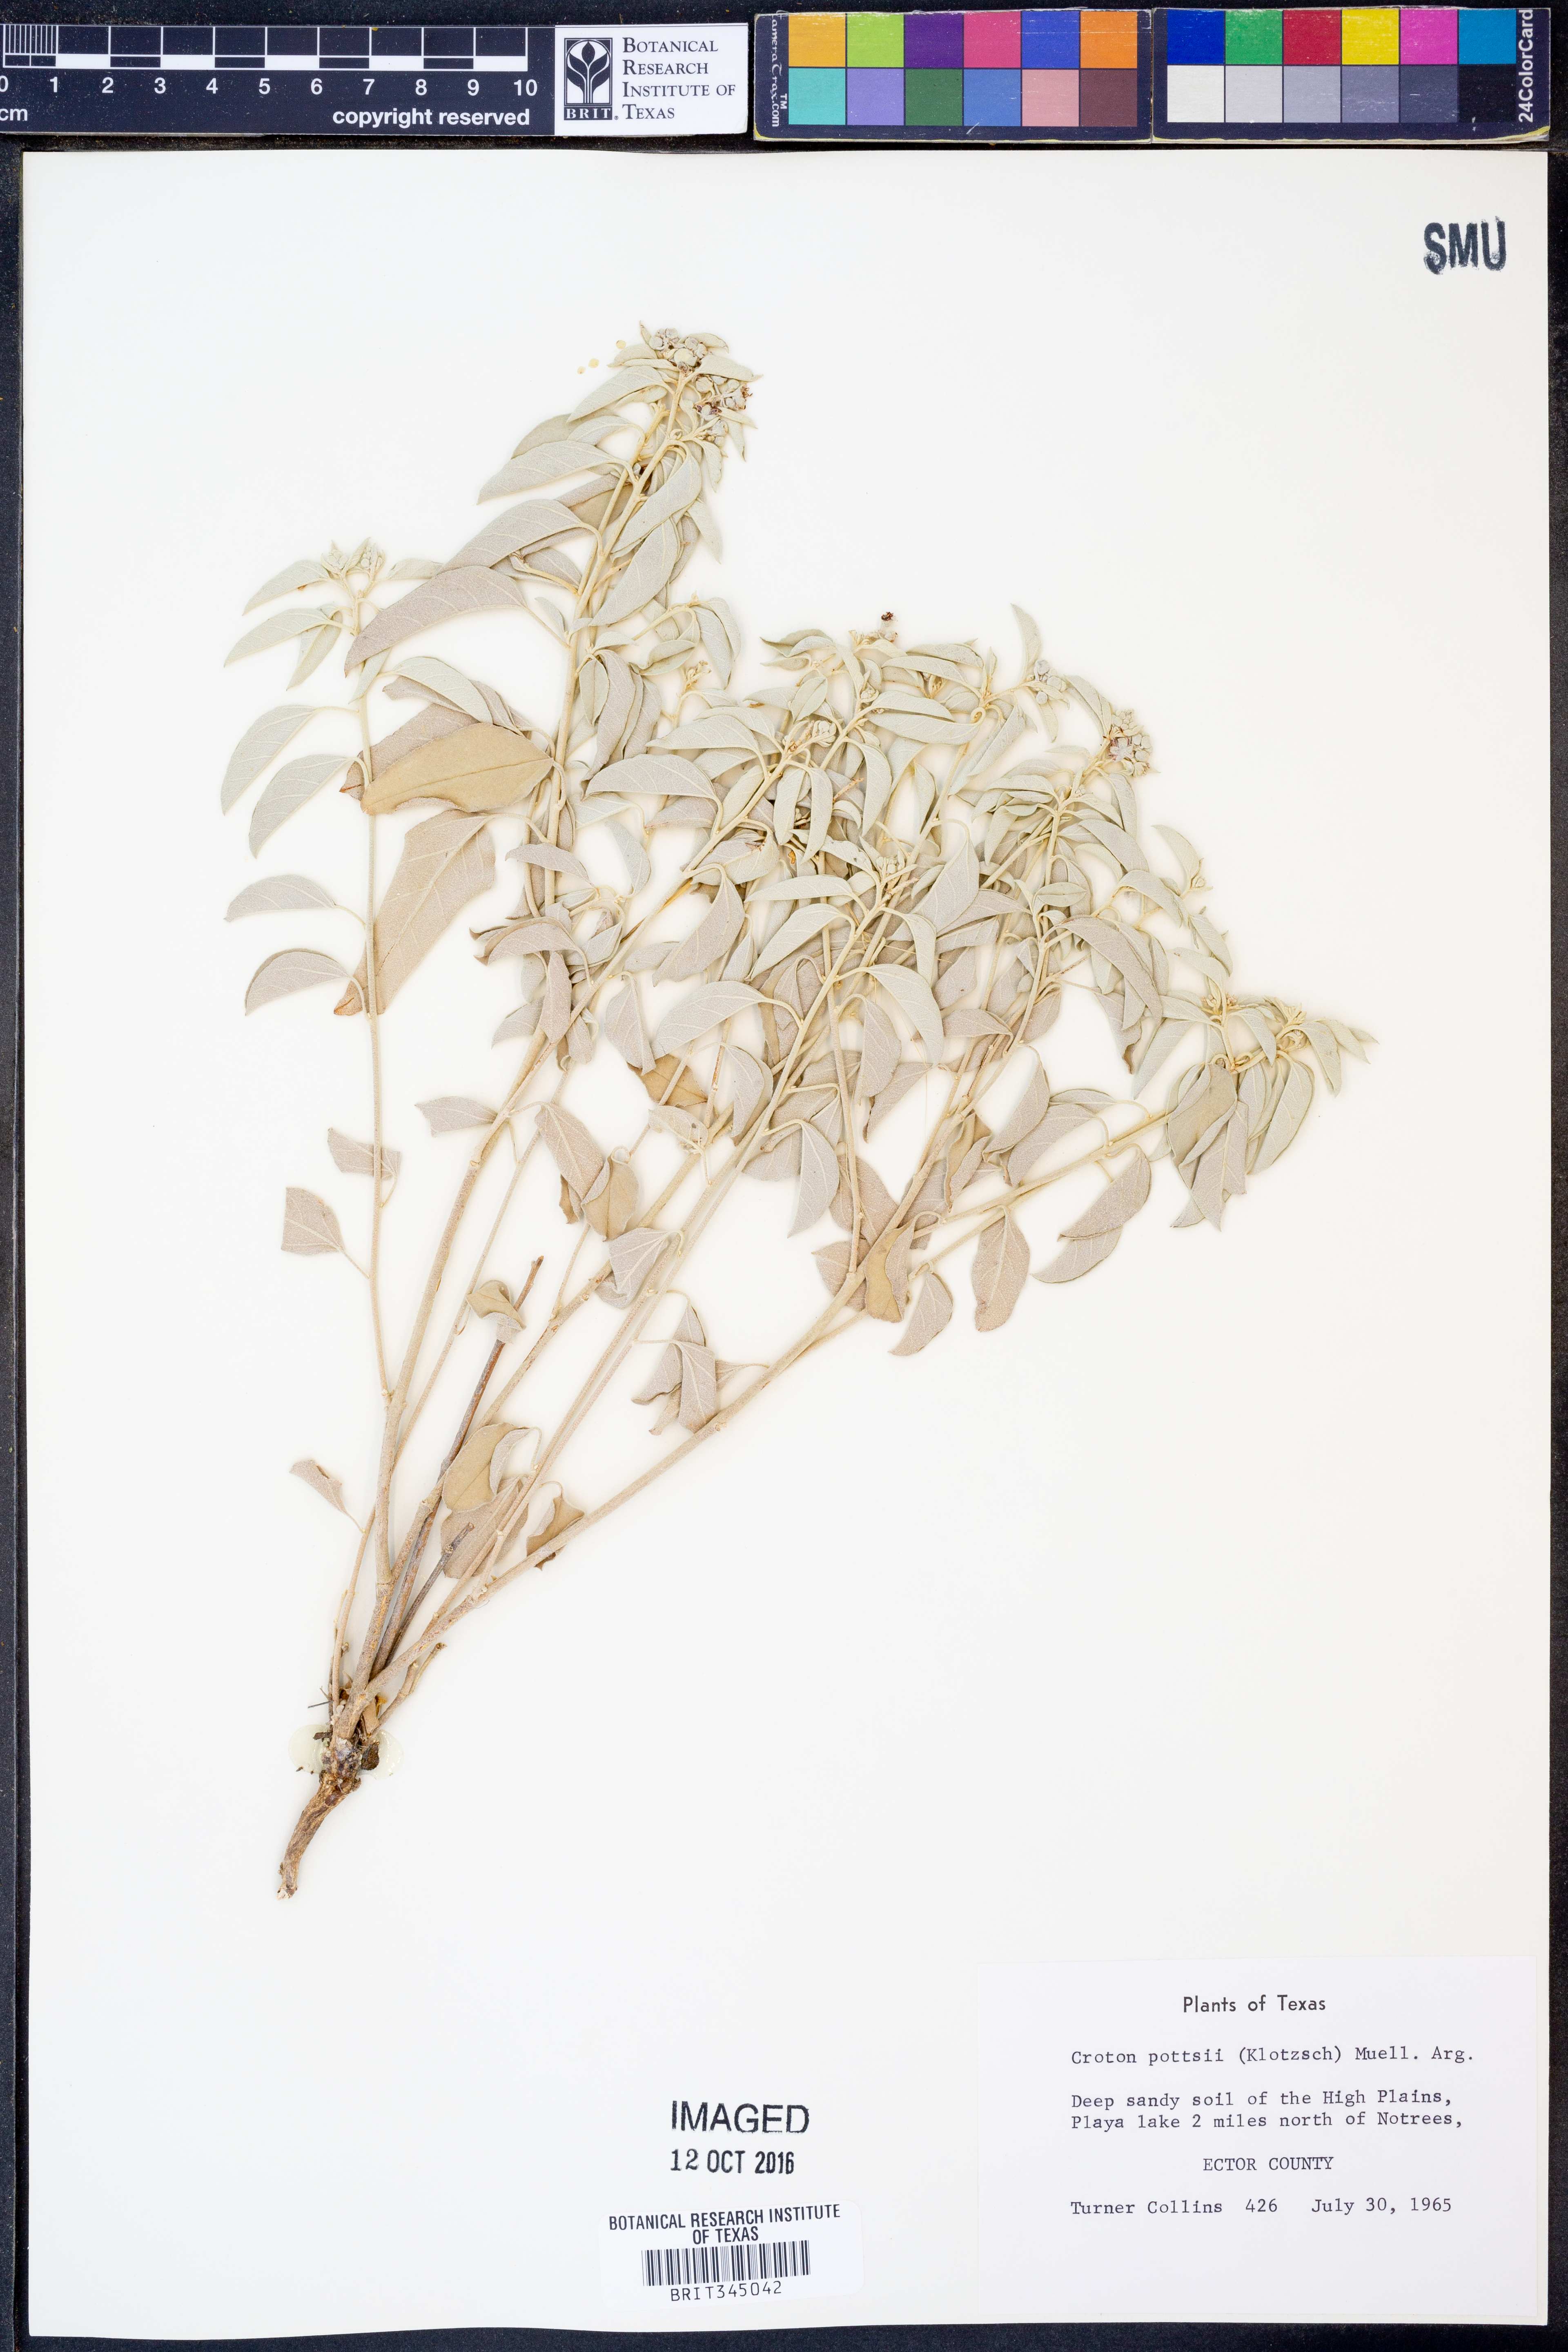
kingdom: Plantae
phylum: Tracheophyta
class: Magnoliopsida
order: Malpighiales
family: Euphorbiaceae
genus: Croton
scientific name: Croton pottsii
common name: Leatherweed
